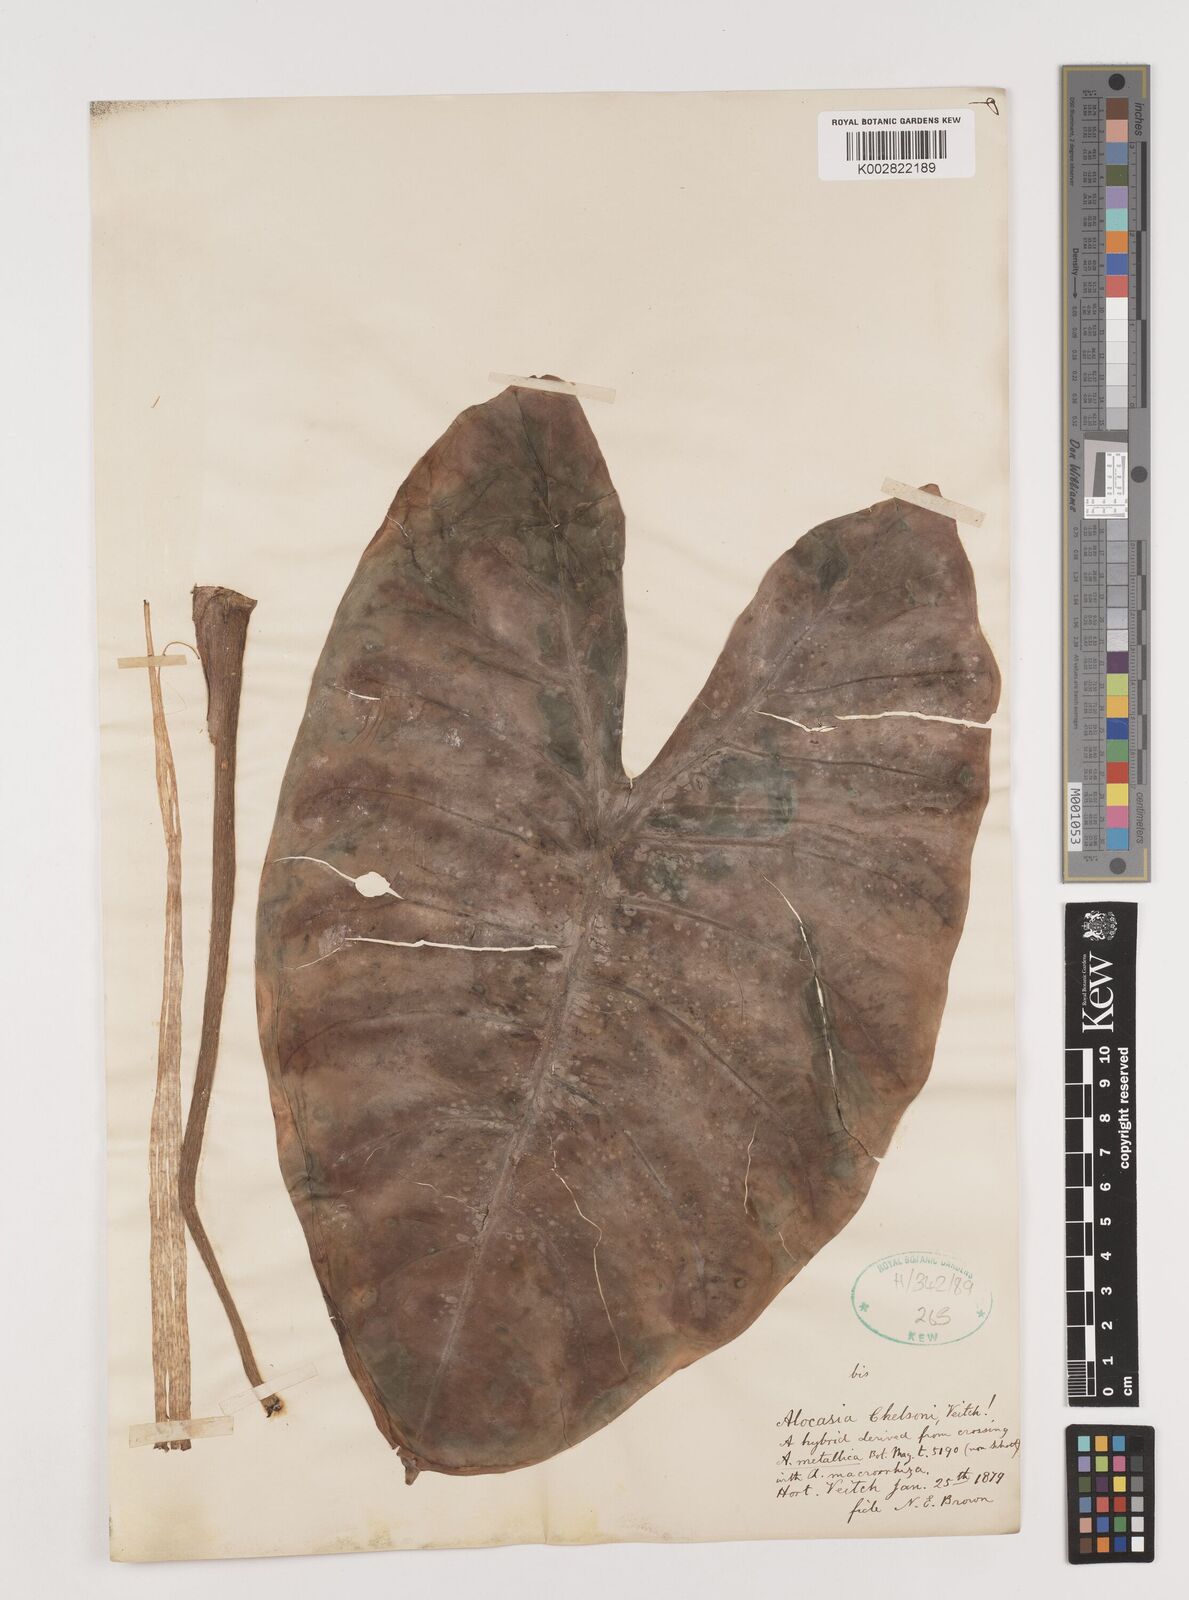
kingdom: Plantae
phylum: Tracheophyta
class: Liliopsida
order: Alismatales
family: Araceae
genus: Alocasia
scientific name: Alocasia macrorrhizos
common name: Giant taro
